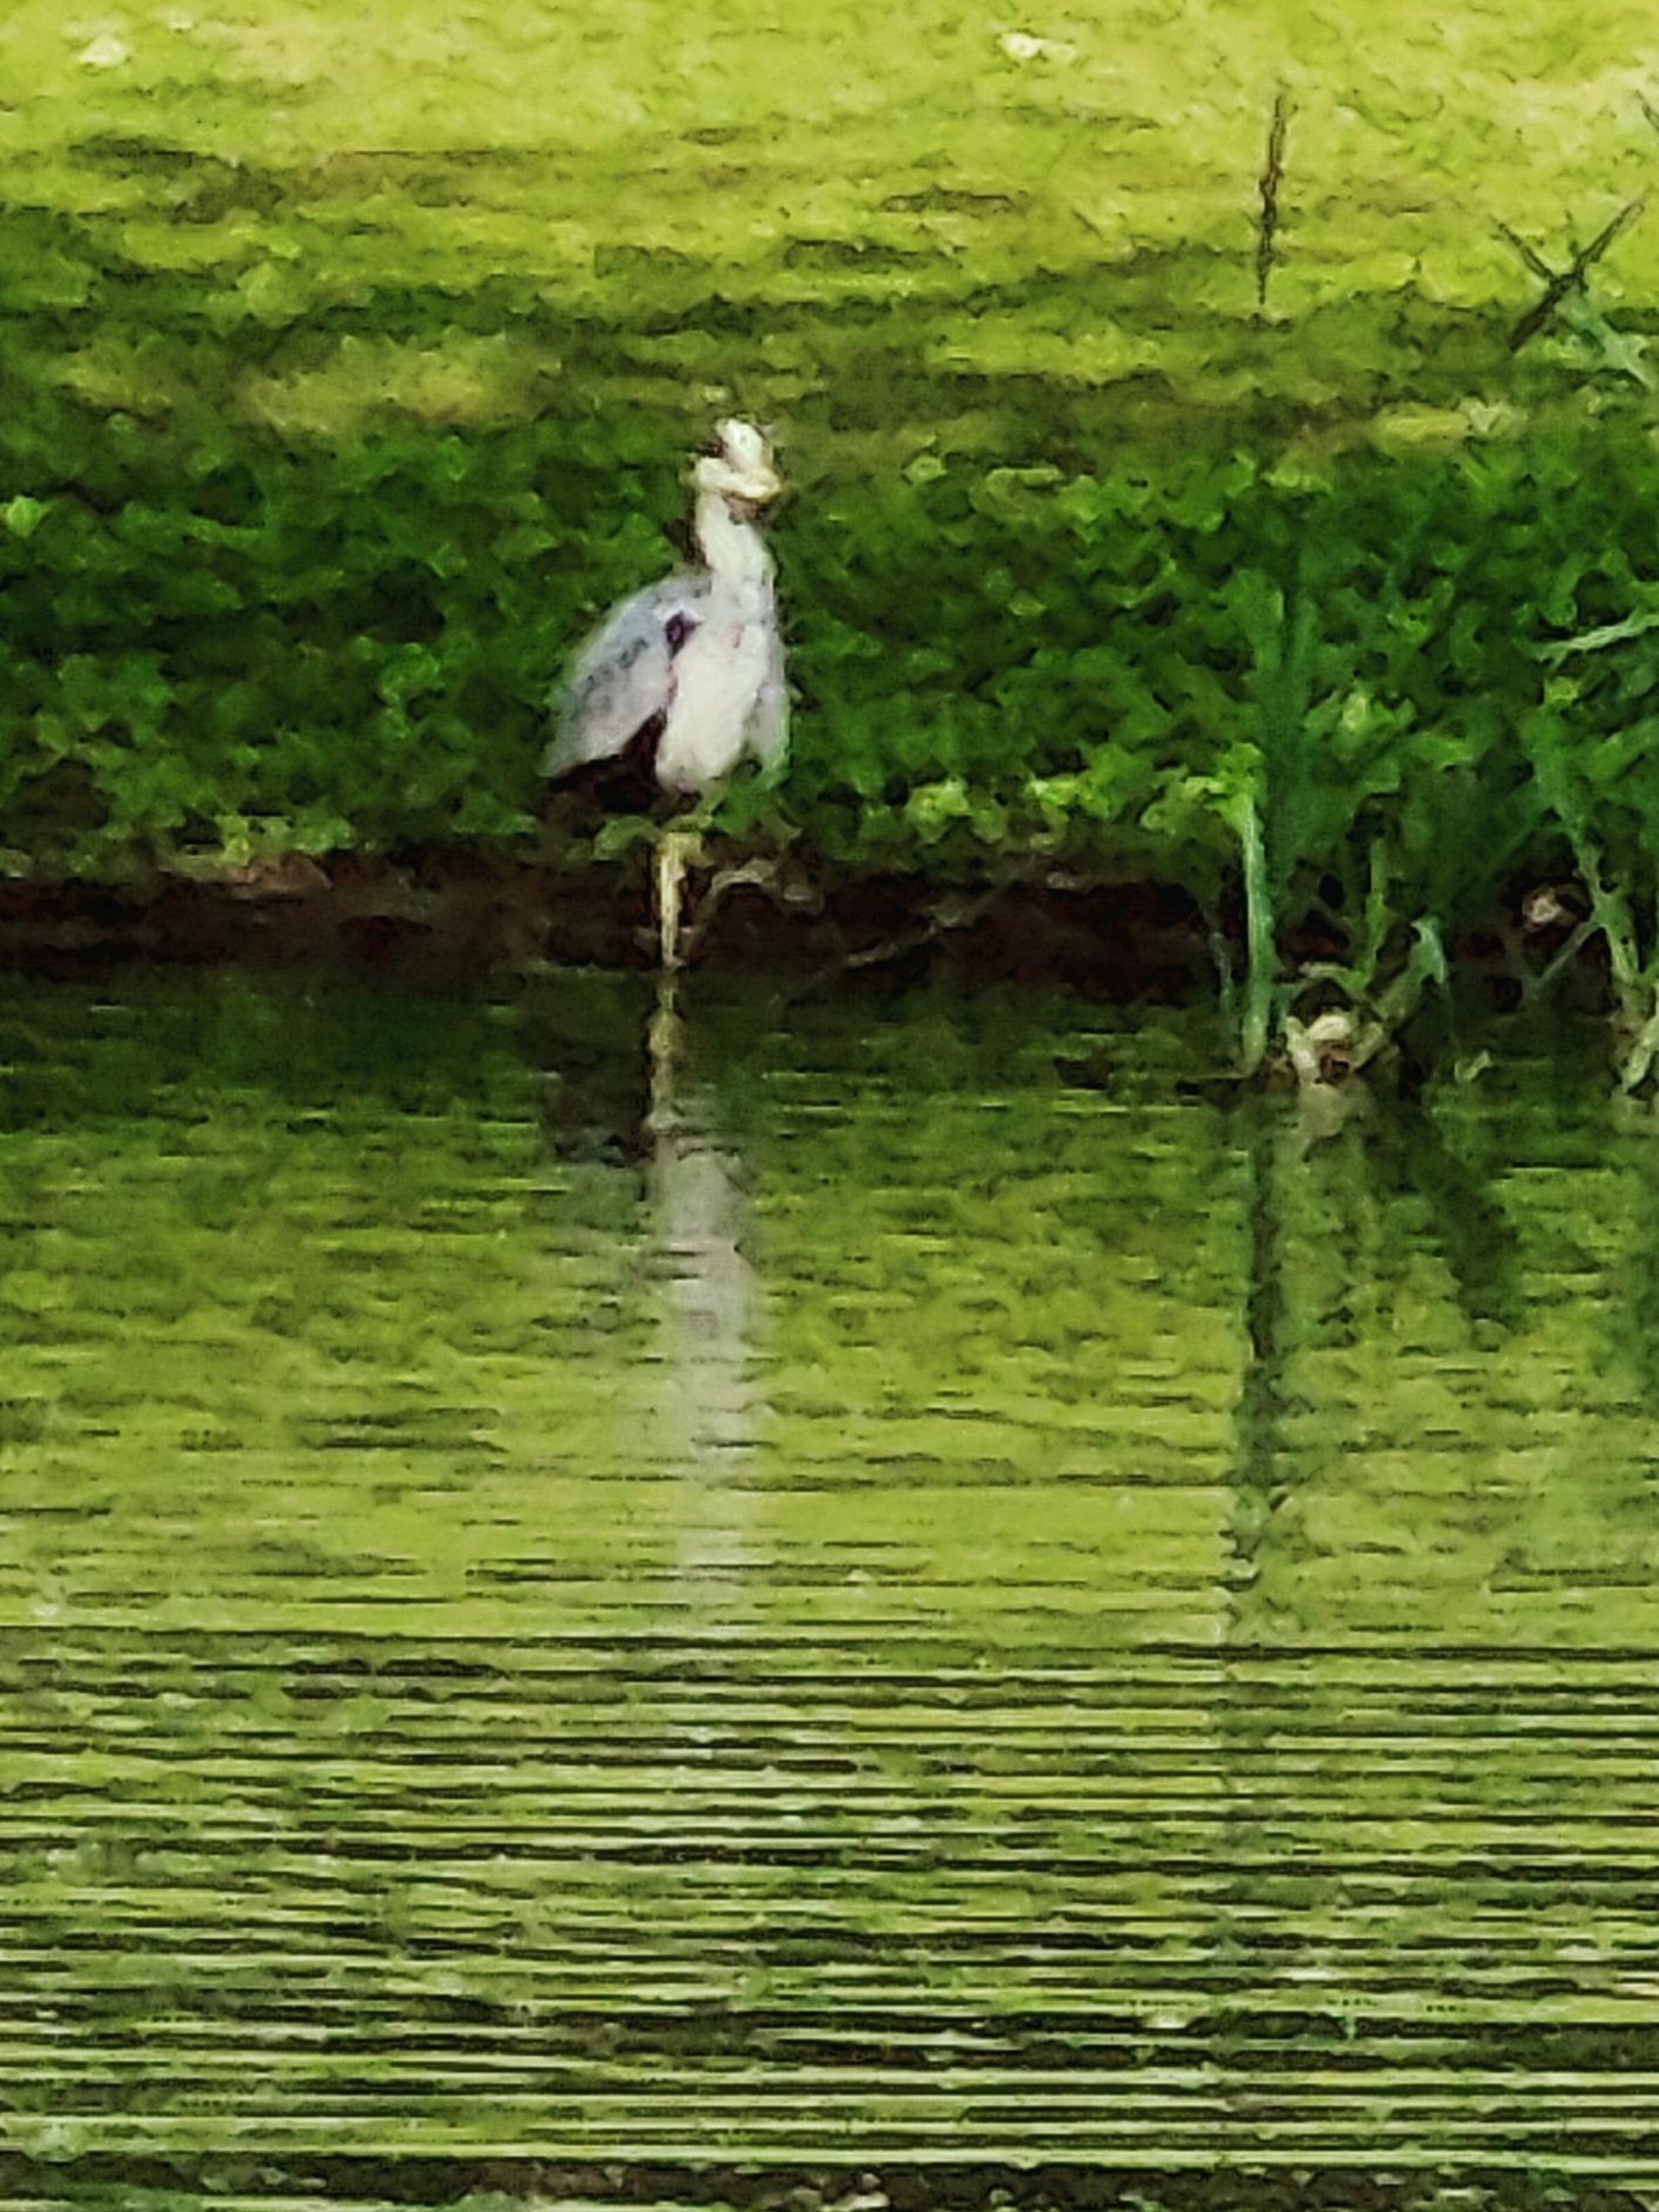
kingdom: Animalia
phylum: Chordata
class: Aves
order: Pelecaniformes
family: Ardeidae
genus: Ardea
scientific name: Ardea cinerea
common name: Fiskehejre
